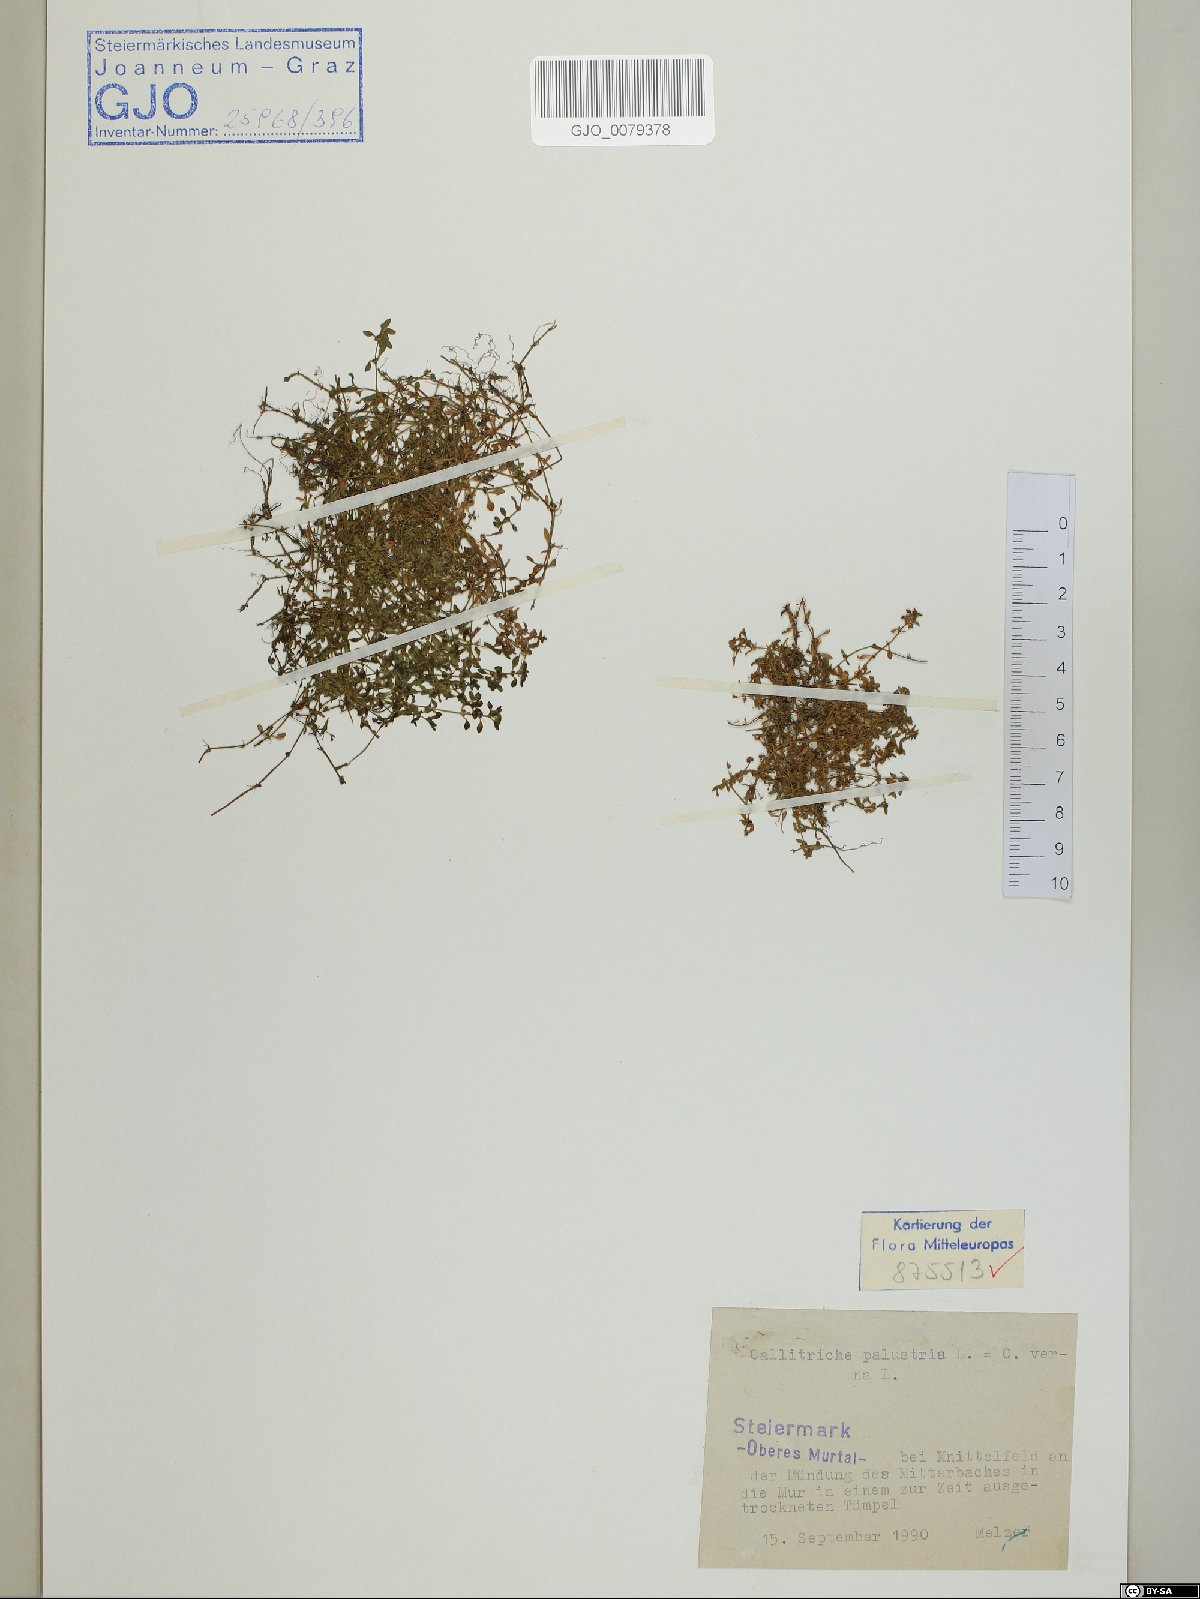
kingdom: Plantae
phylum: Tracheophyta
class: Magnoliopsida
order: Lamiales
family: Plantaginaceae
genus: Callitriche
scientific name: Callitriche palustris
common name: Spring water-starwort
